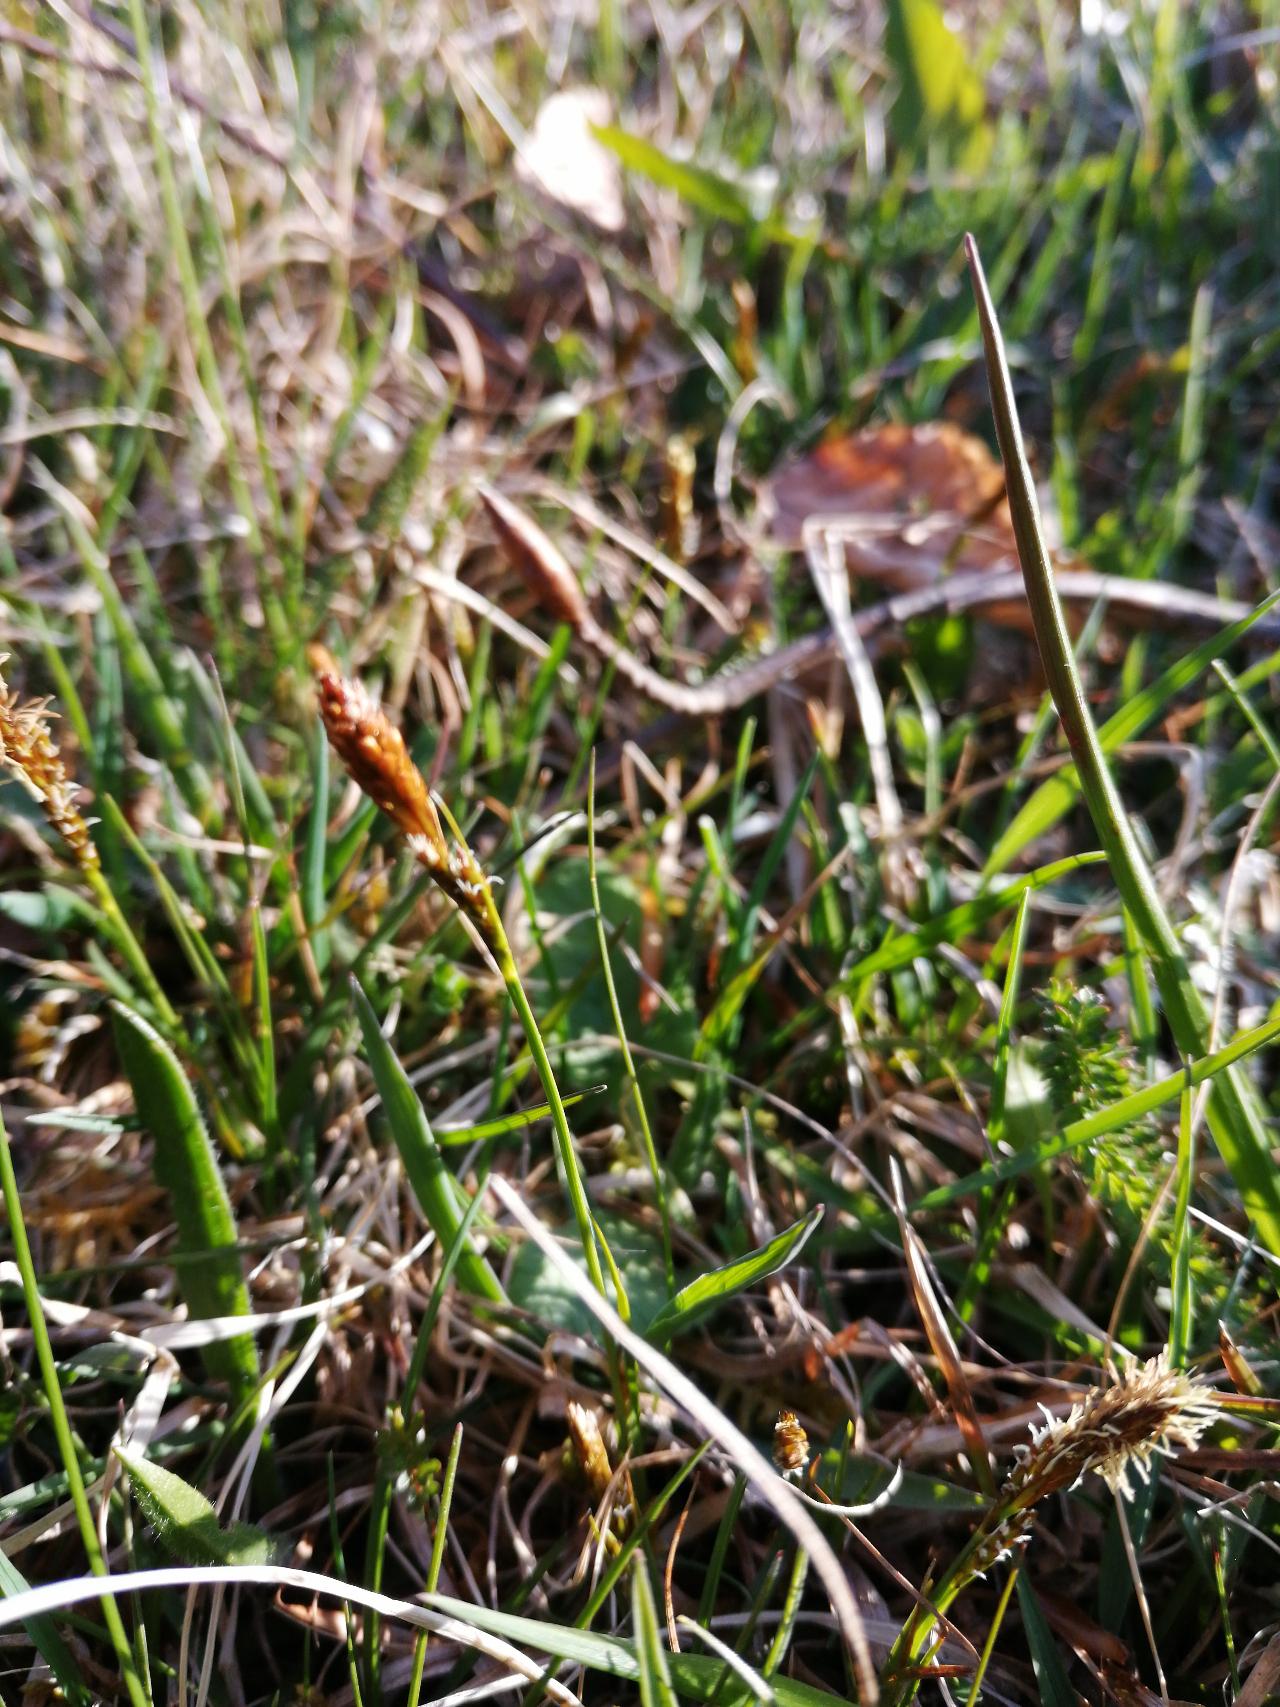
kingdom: Plantae
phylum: Tracheophyta
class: Liliopsida
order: Poales
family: Cyperaceae
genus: Carex
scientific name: Carex caryophyllea
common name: Vår-star
